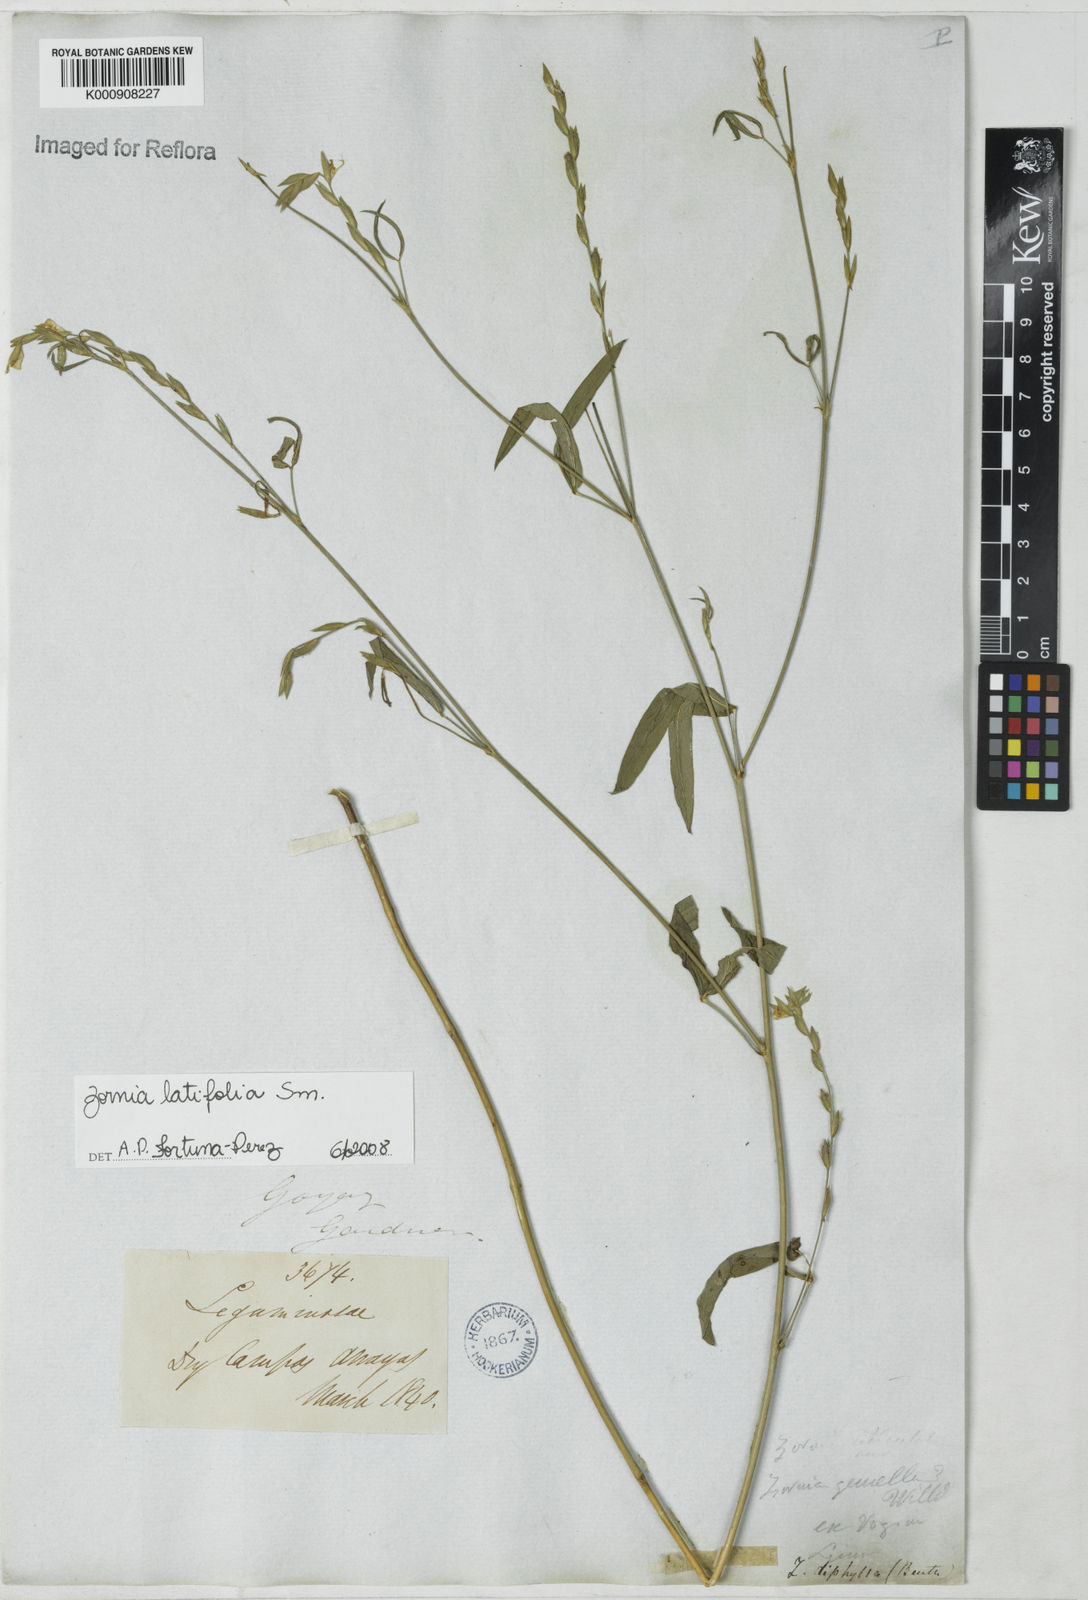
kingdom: Plantae
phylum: Tracheophyta
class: Magnoliopsida
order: Fabales
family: Fabaceae
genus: Zornia
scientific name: Zornia latifolia
